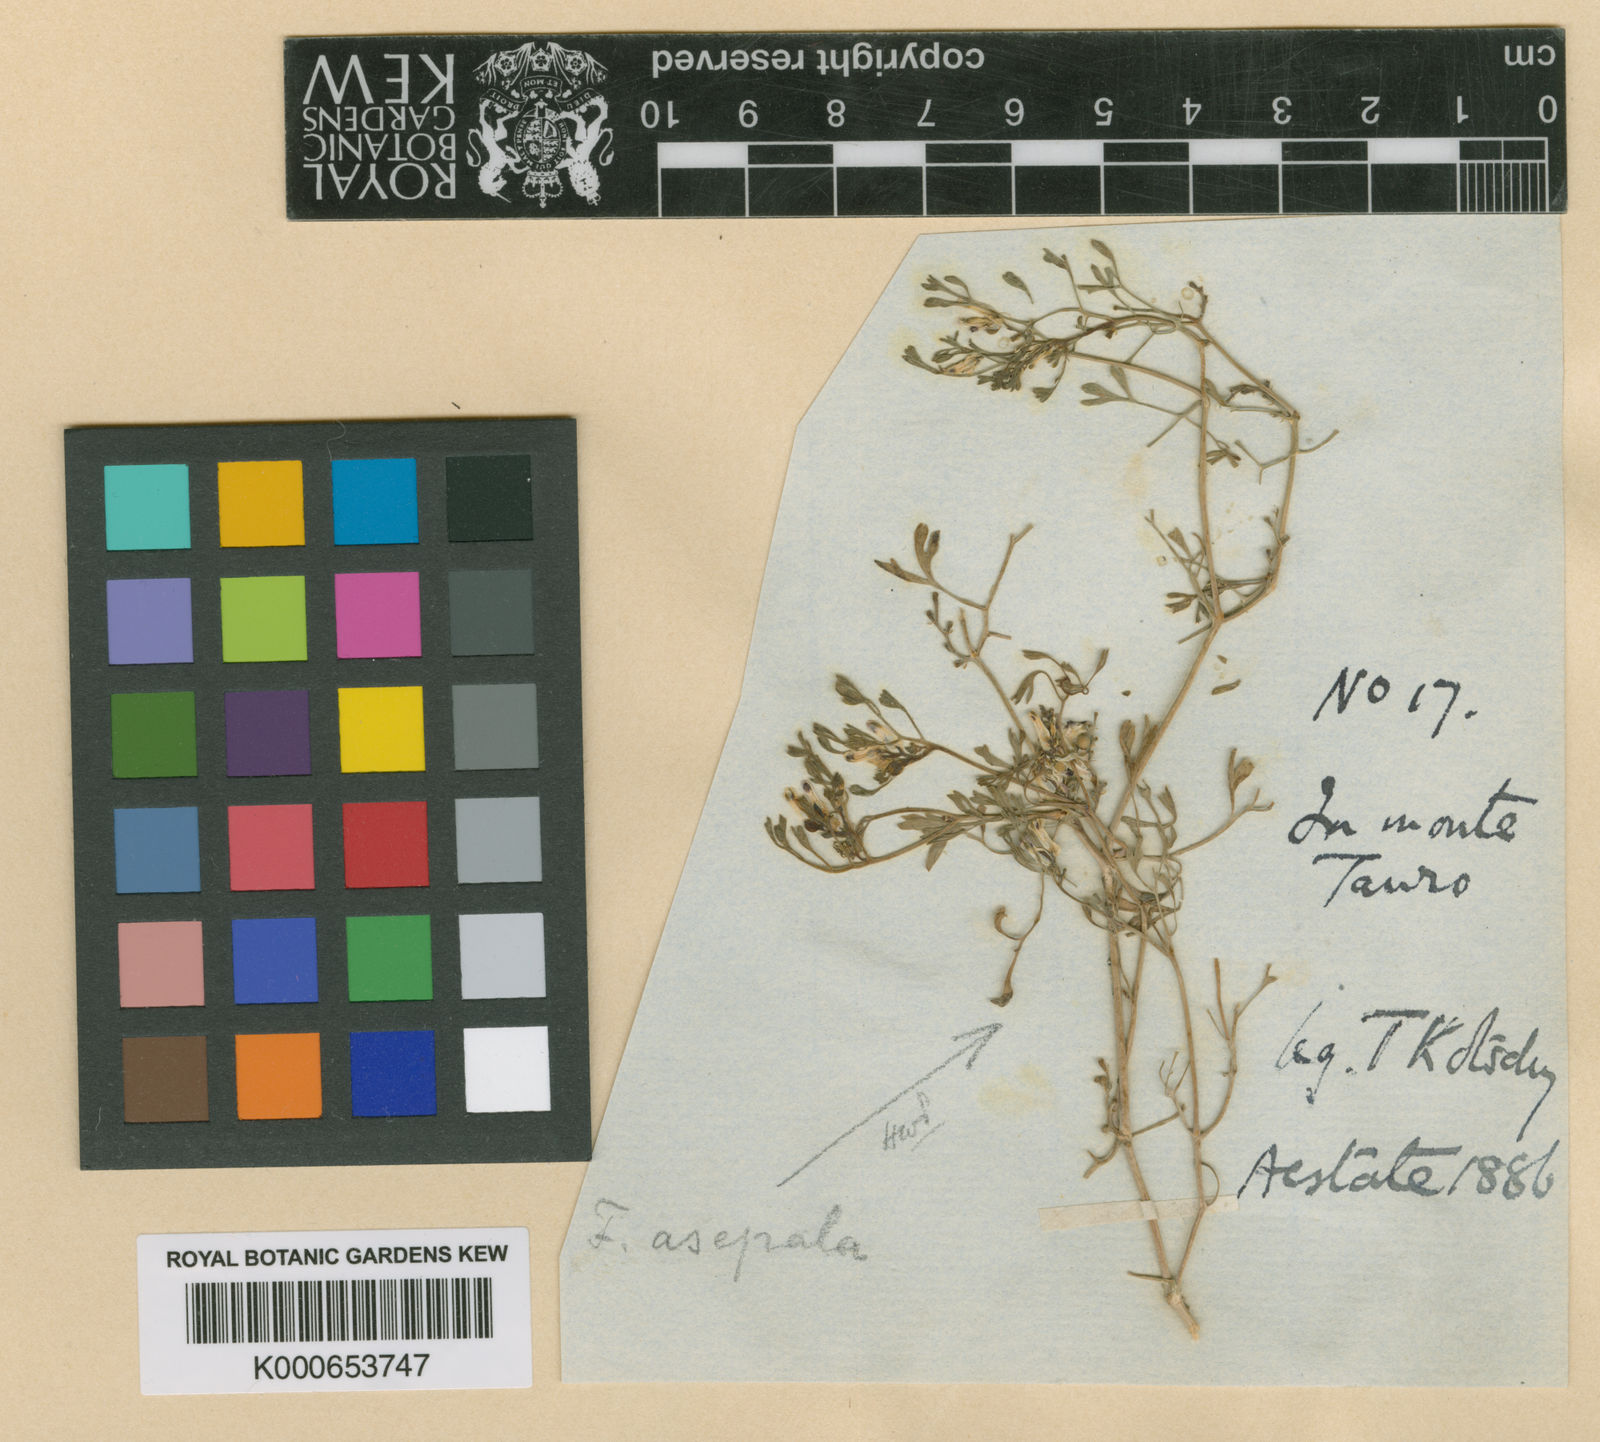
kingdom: Plantae
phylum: Tracheophyta
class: Magnoliopsida
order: Ranunculales
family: Papaveraceae
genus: Fumaria
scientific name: Fumaria asepala
